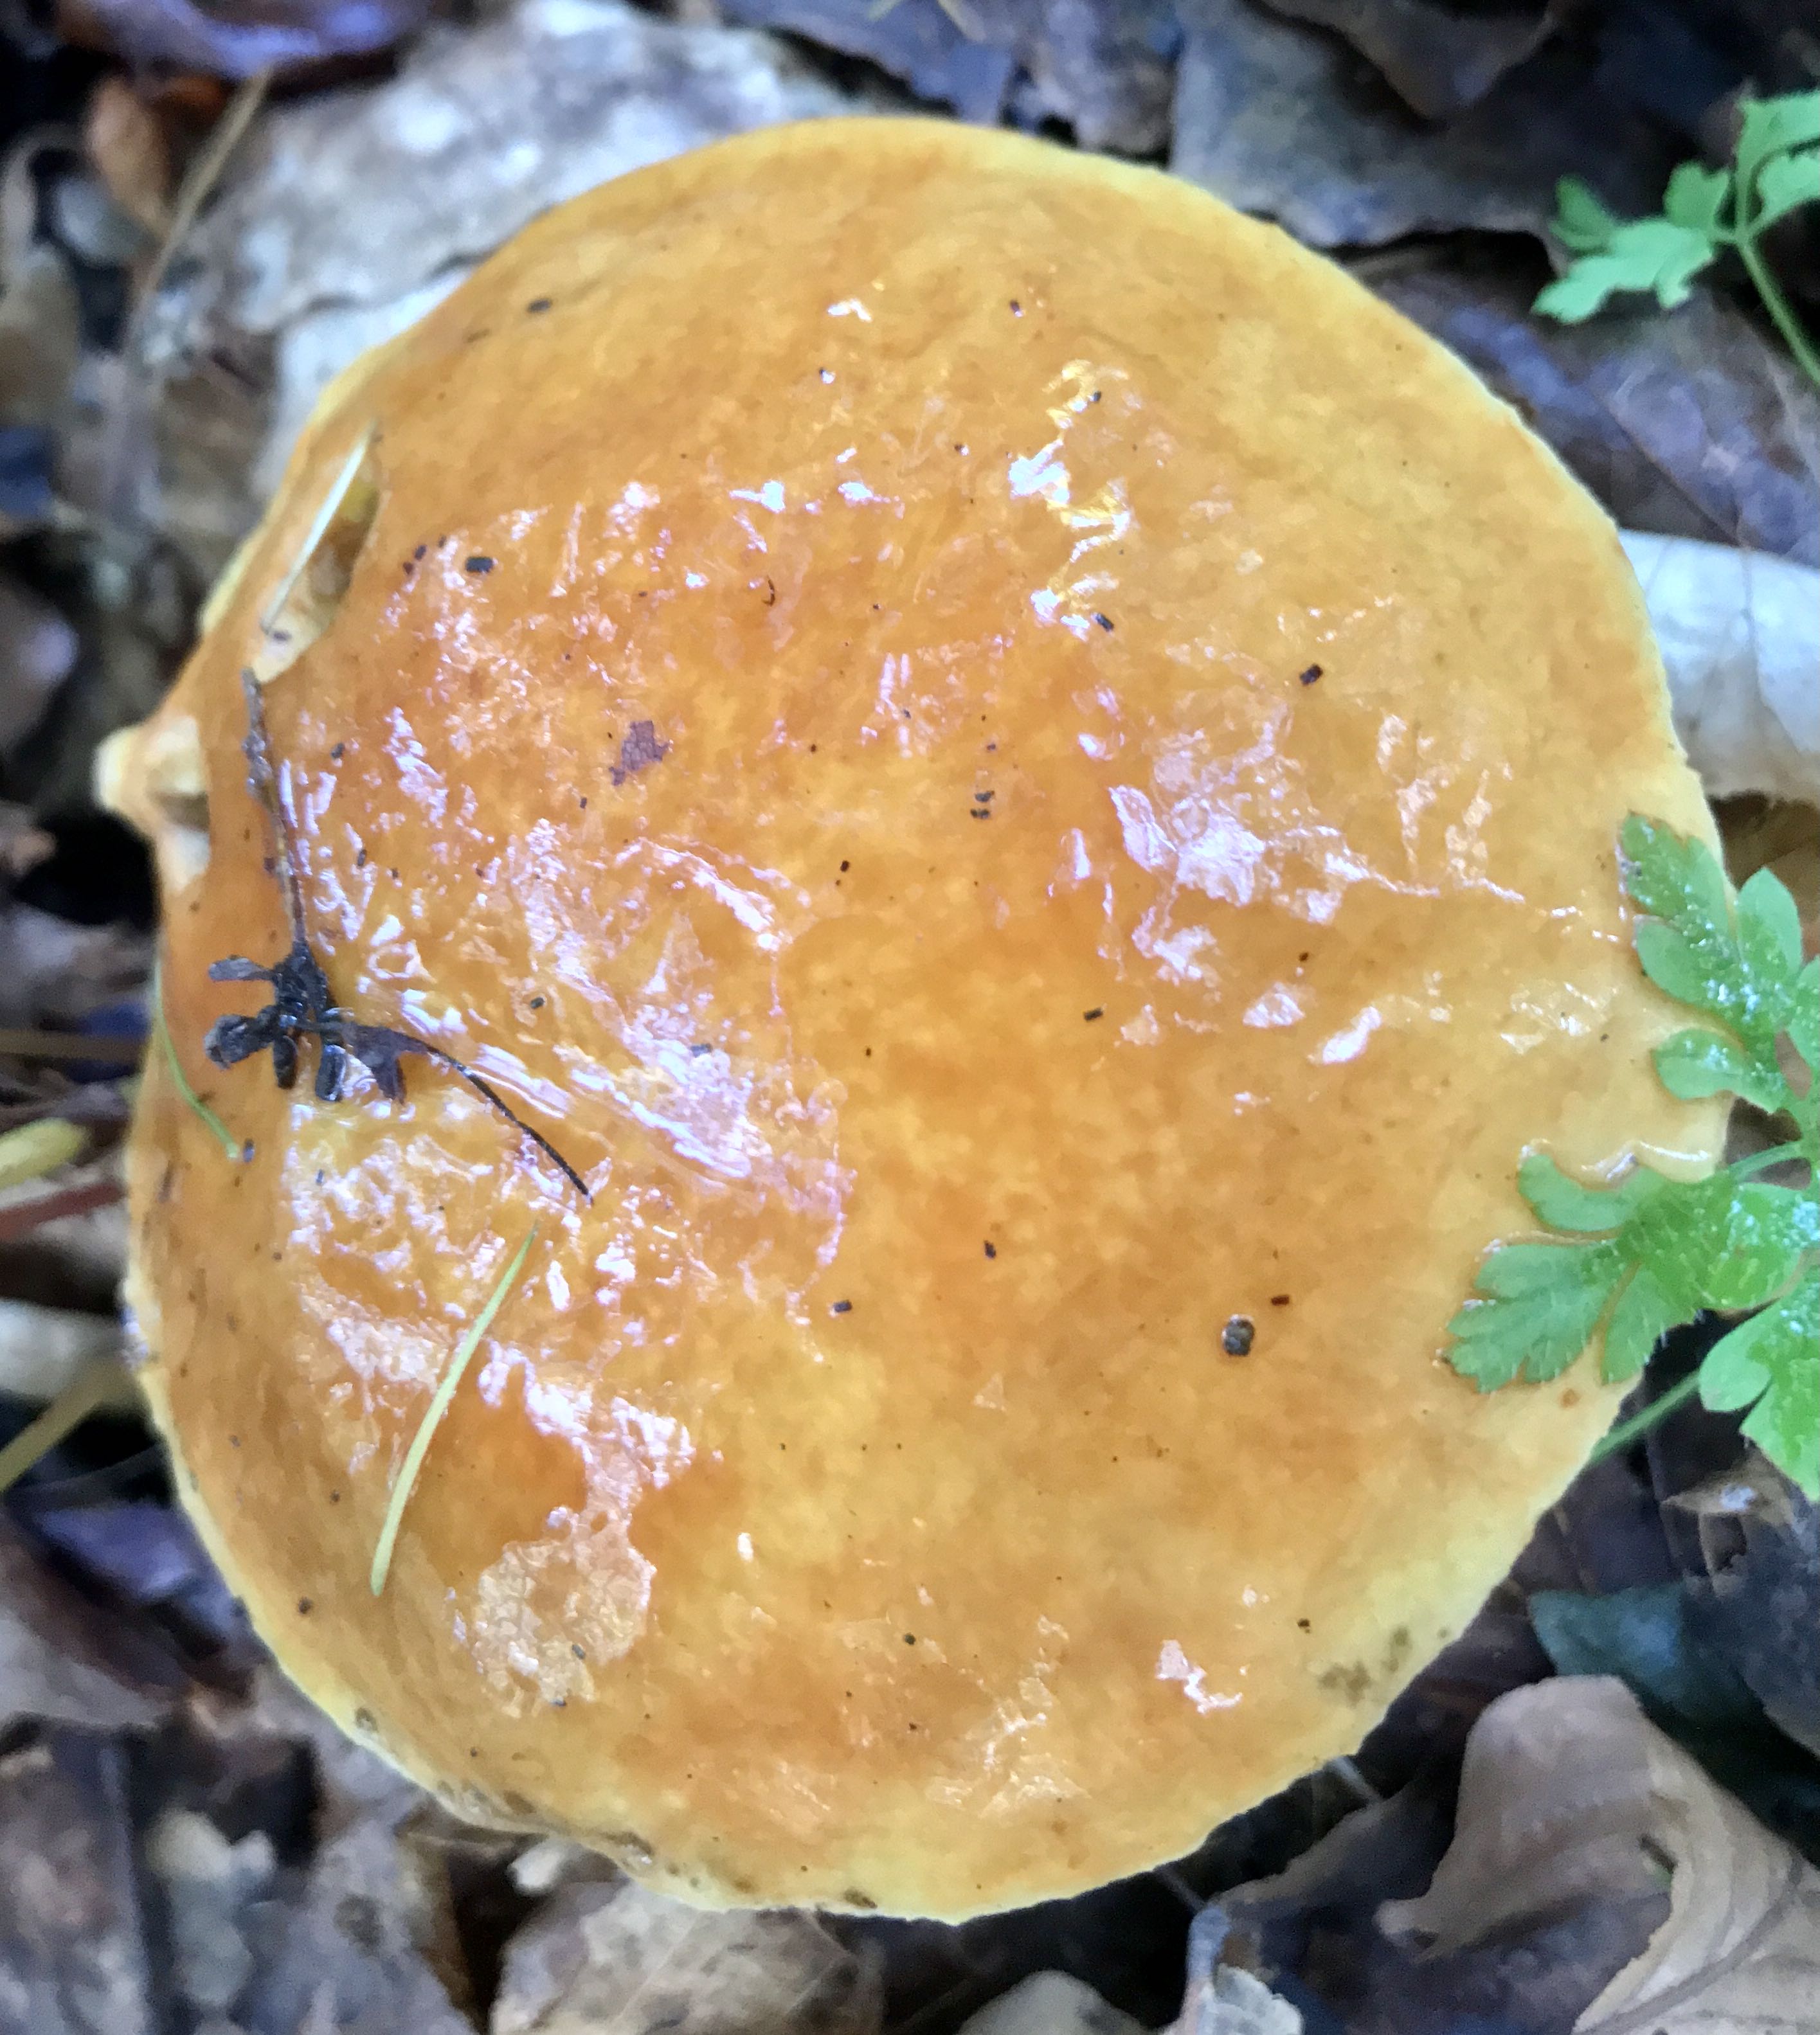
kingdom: Fungi
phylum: Basidiomycota
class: Agaricomycetes
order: Boletales
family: Suillaceae
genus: Suillus
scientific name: Suillus grevillei
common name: lærke-slimrørhat
